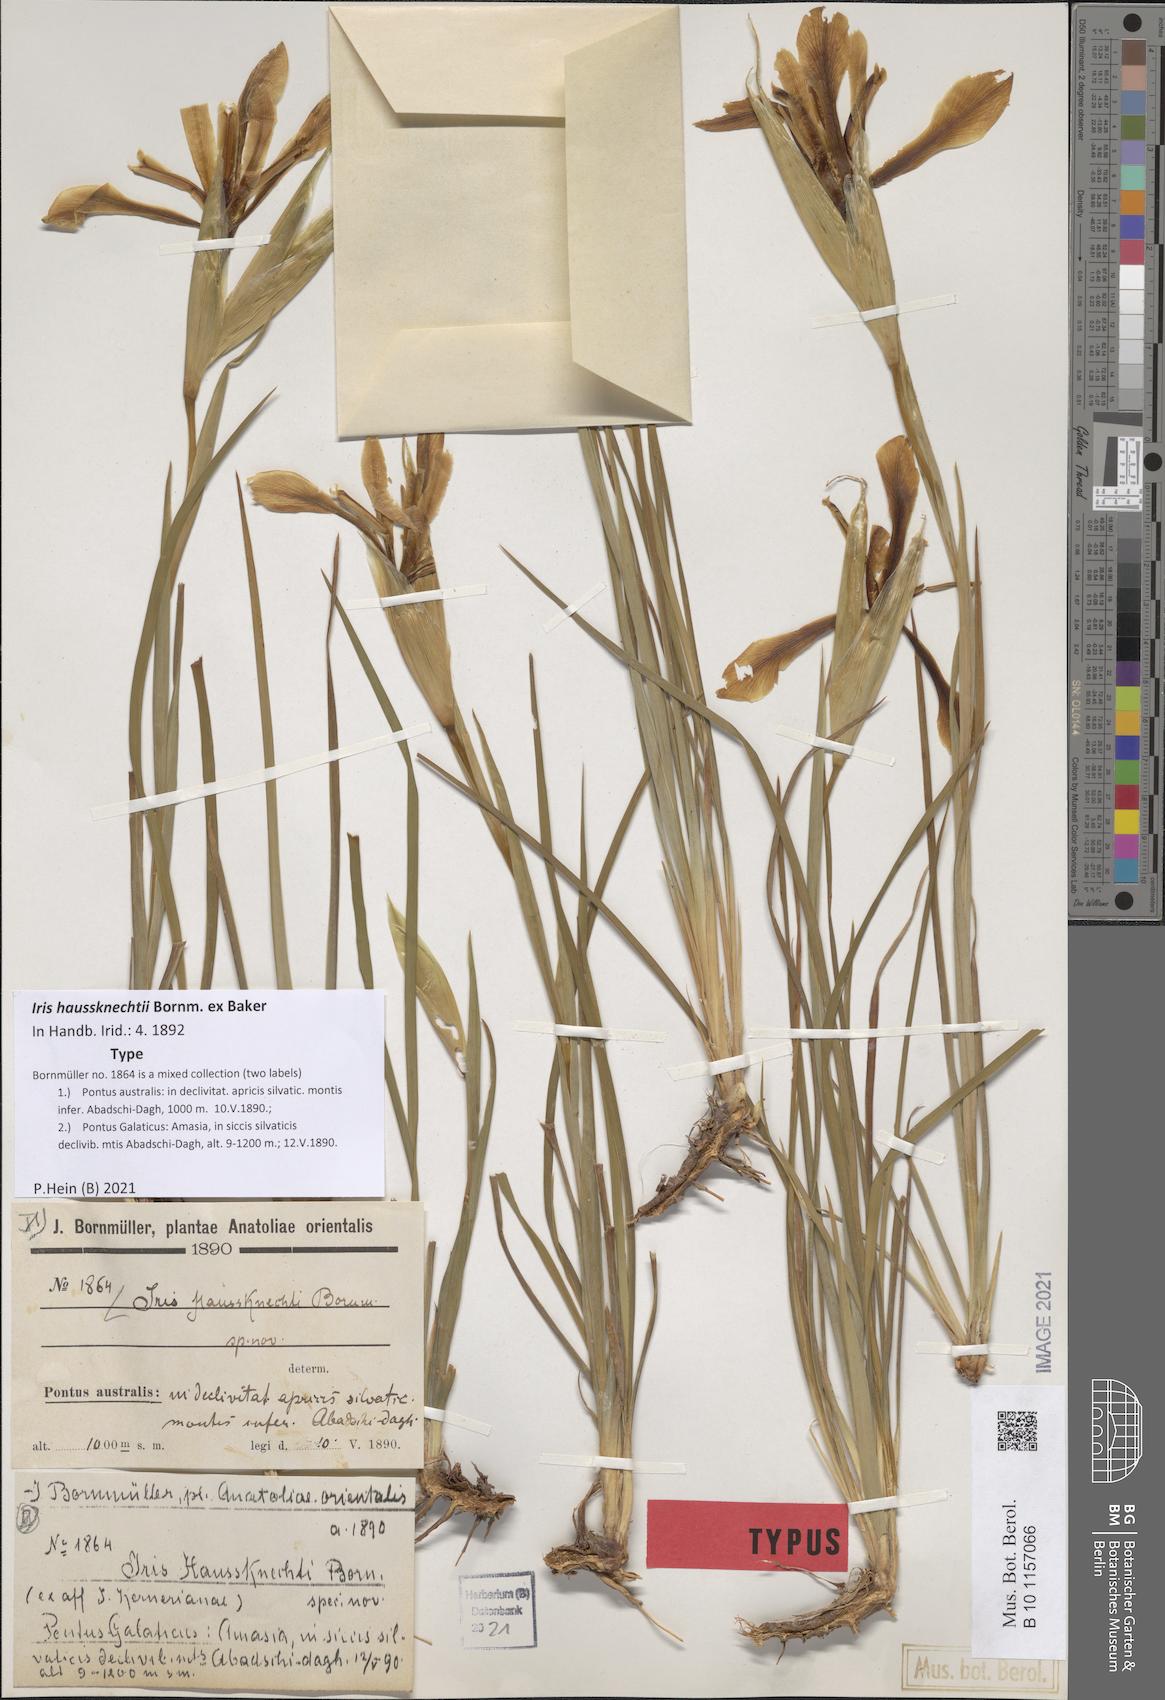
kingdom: Plantae
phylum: Tracheophyta
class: Liliopsida
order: Asparagales
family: Iridaceae
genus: Iris
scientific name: Iris haussknechtii
